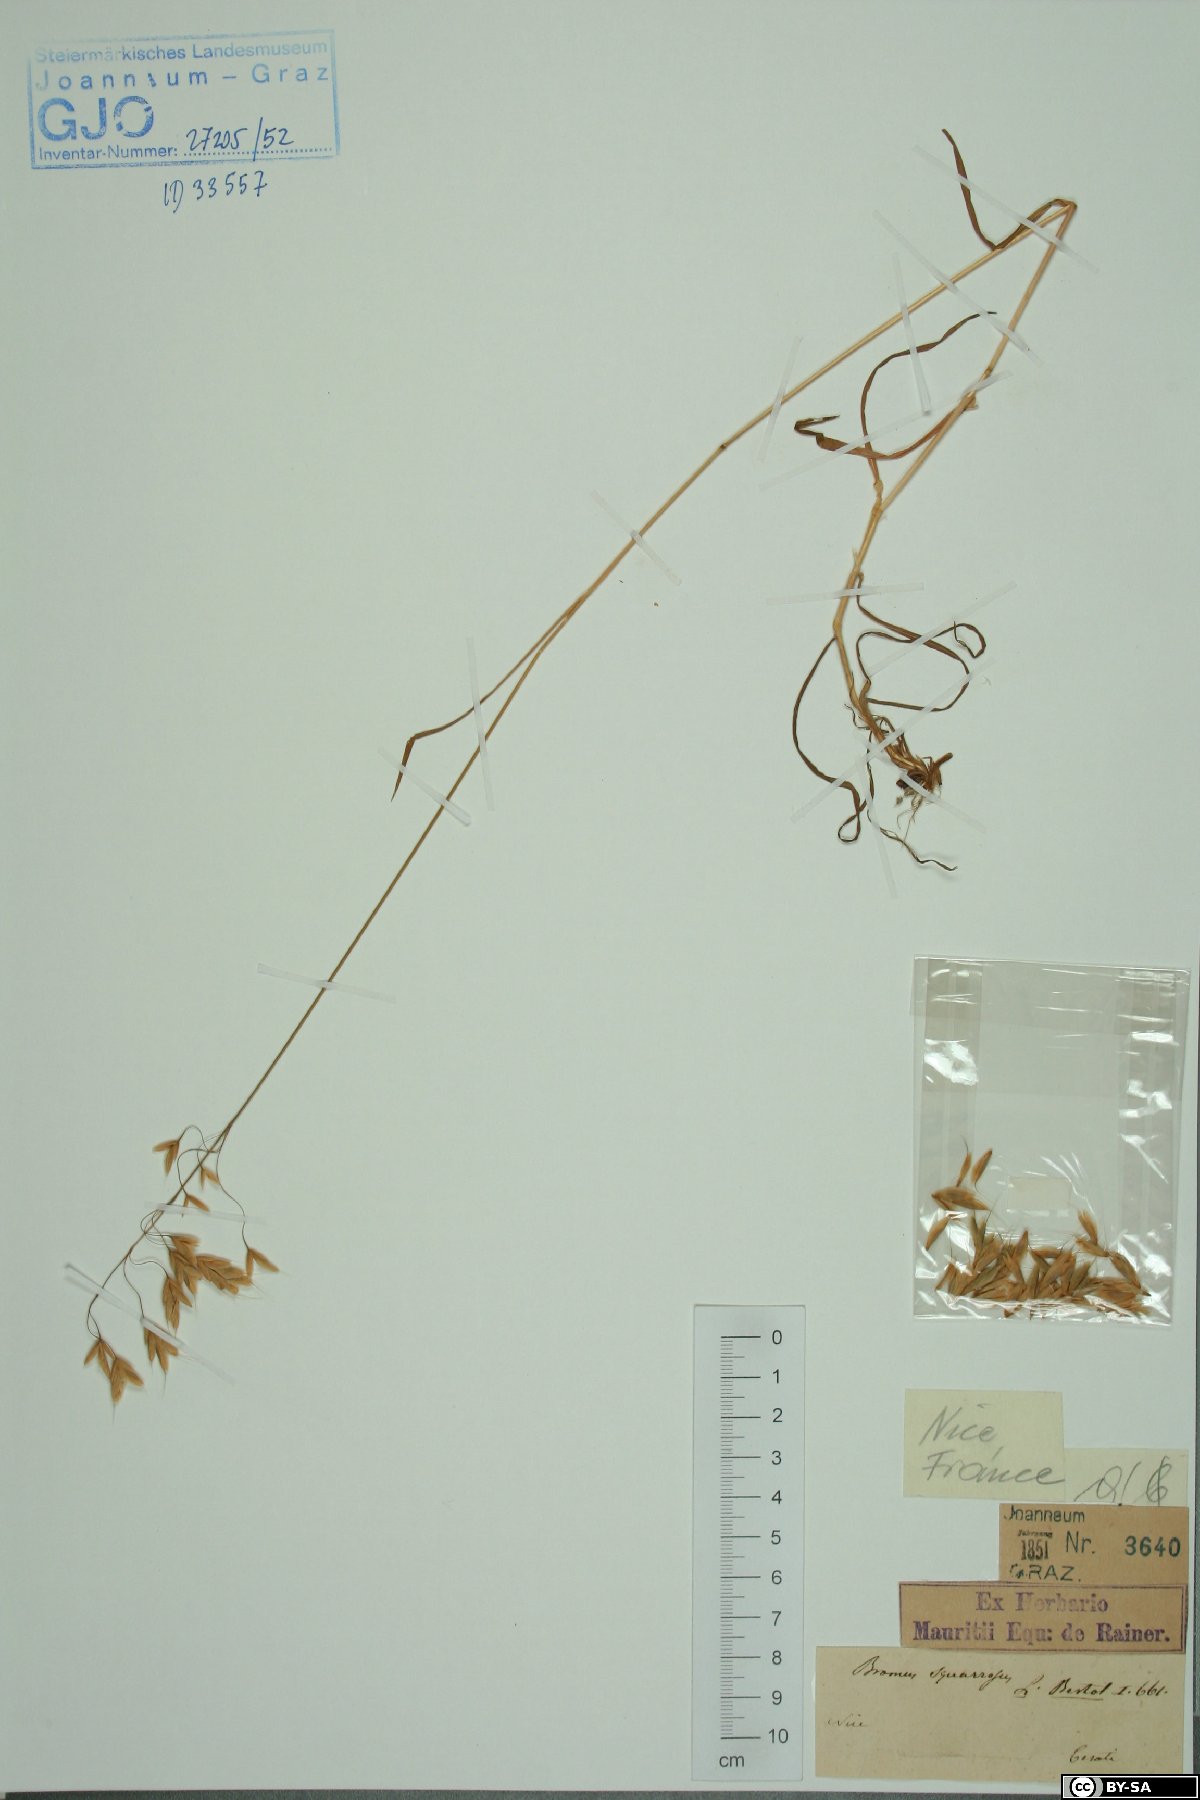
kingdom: Plantae
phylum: Tracheophyta
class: Liliopsida
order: Poales
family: Poaceae
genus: Bromus
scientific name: Bromus squarrosus
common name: Corn brome
